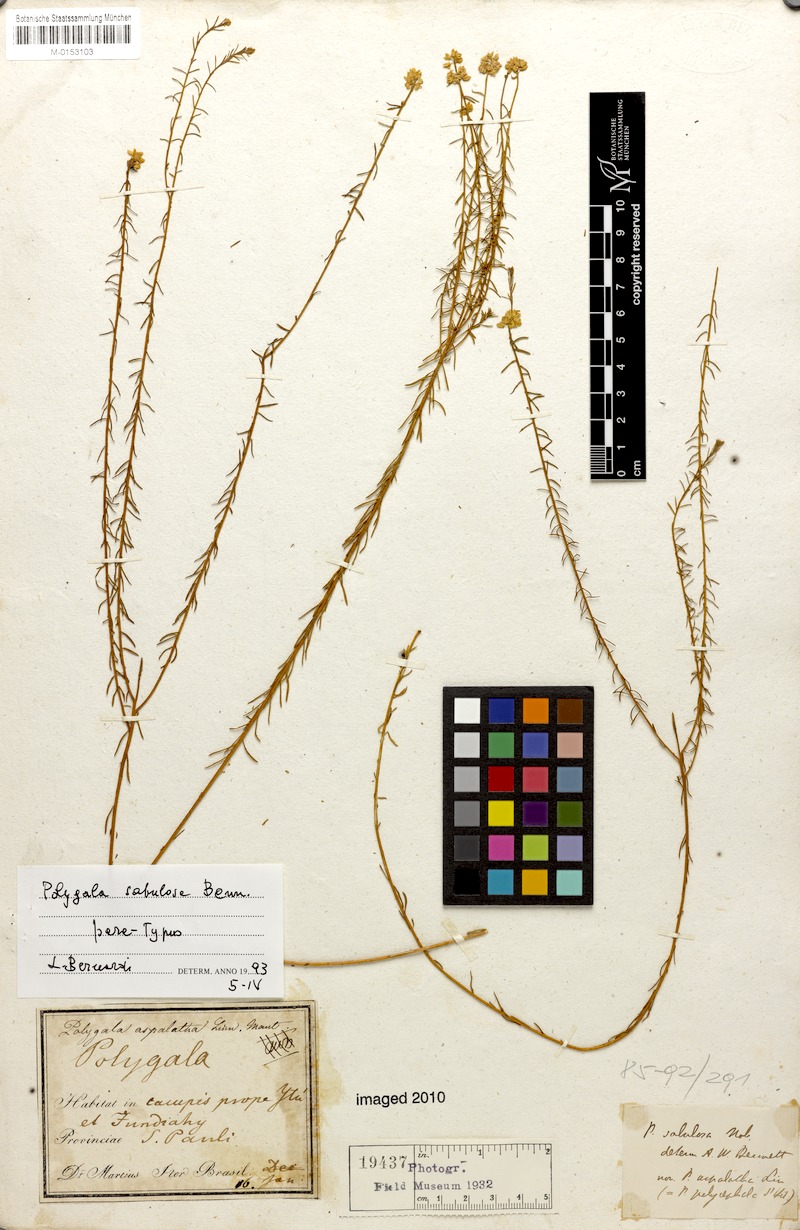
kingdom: Plantae
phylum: Tracheophyta
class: Magnoliopsida
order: Fabales
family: Polygalaceae
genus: Polygala
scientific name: Polygala sellowiana
